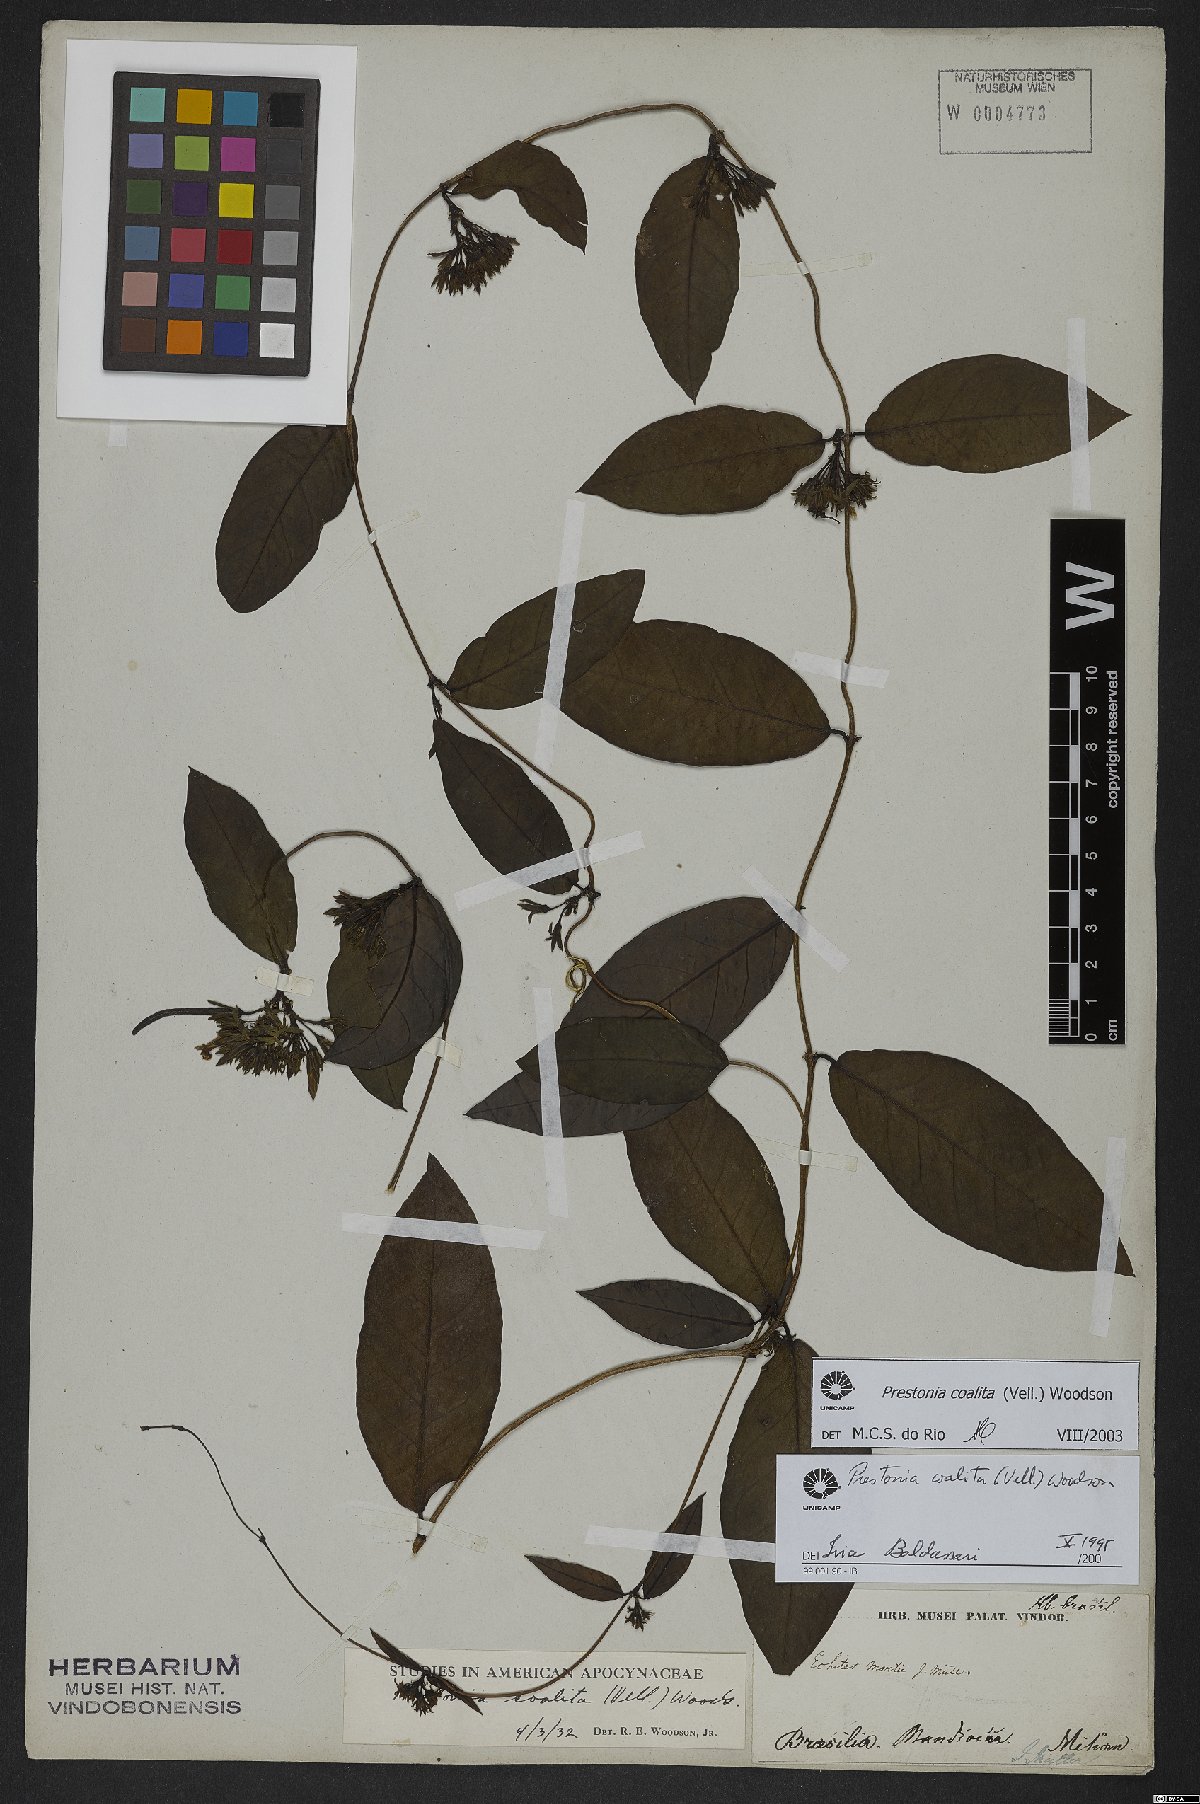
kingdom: Plantae
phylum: Tracheophyta
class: Magnoliopsida
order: Gentianales
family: Apocynaceae
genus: Prestonia
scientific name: Prestonia coalita
